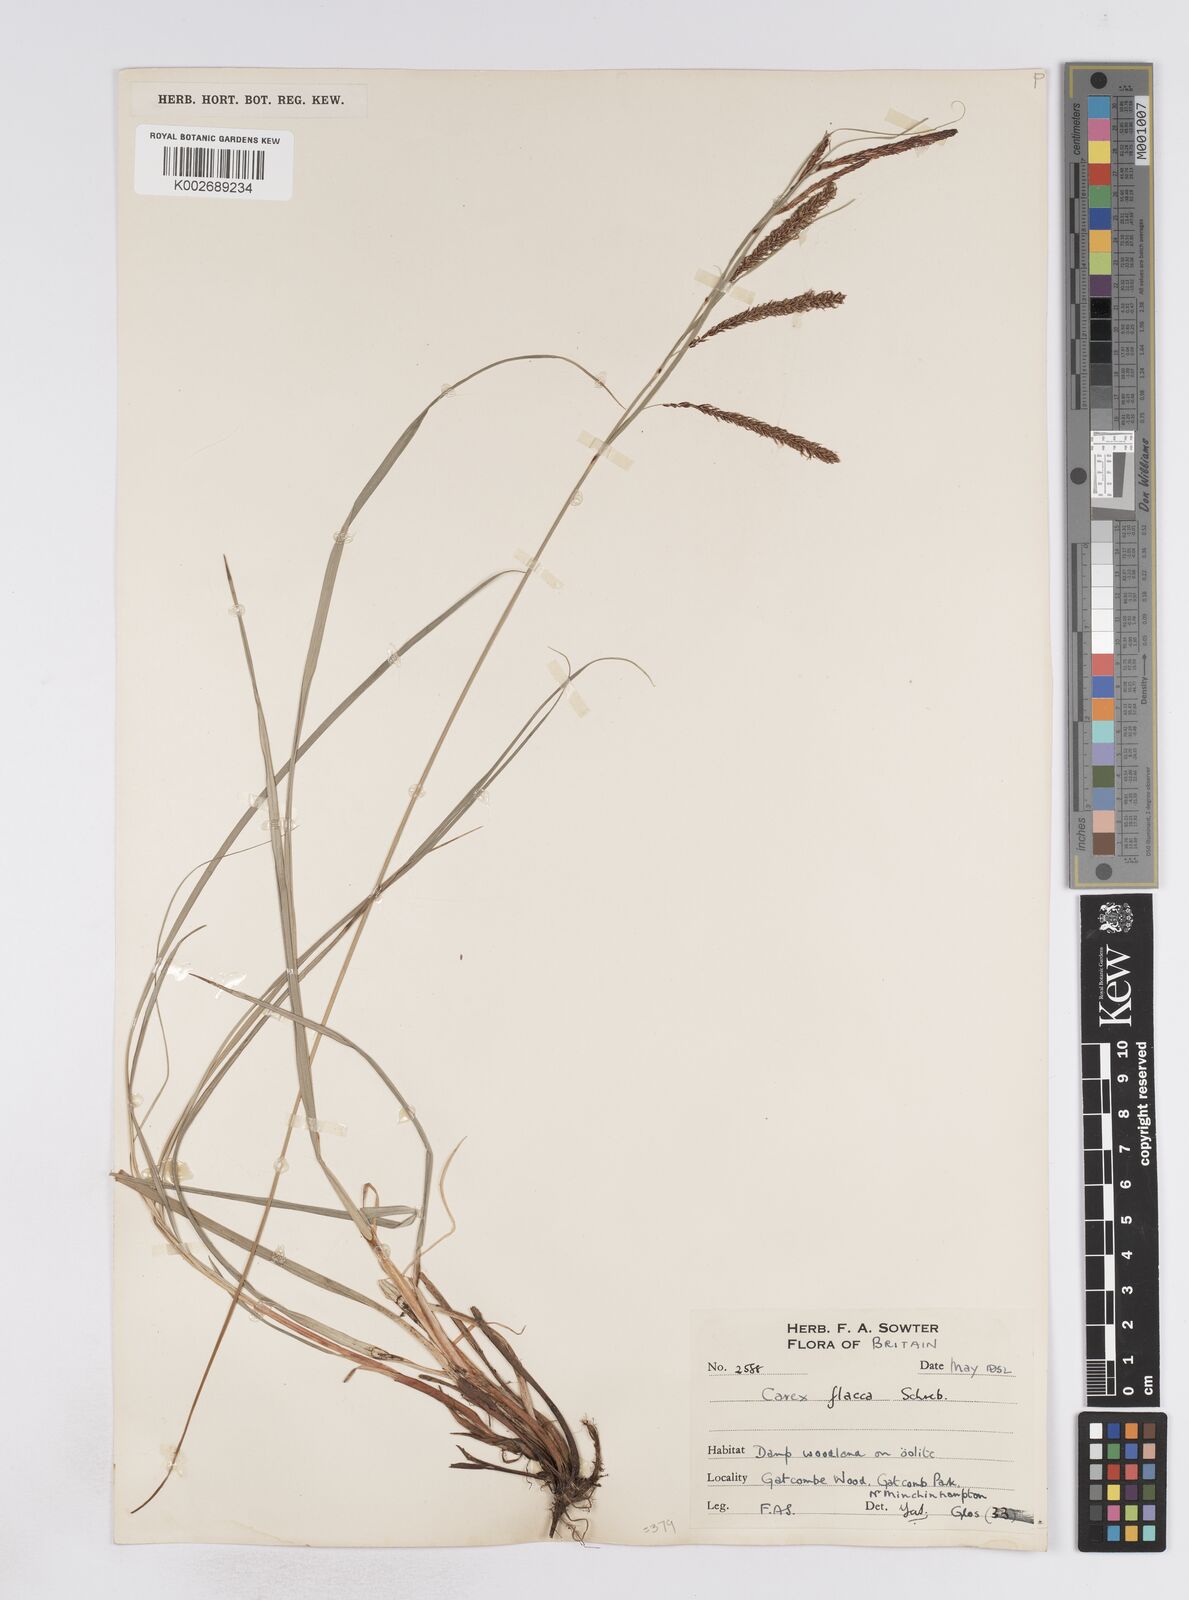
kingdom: Plantae
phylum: Tracheophyta
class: Liliopsida
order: Poales
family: Cyperaceae
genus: Carex
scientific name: Carex flacca
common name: Glaucous sedge
